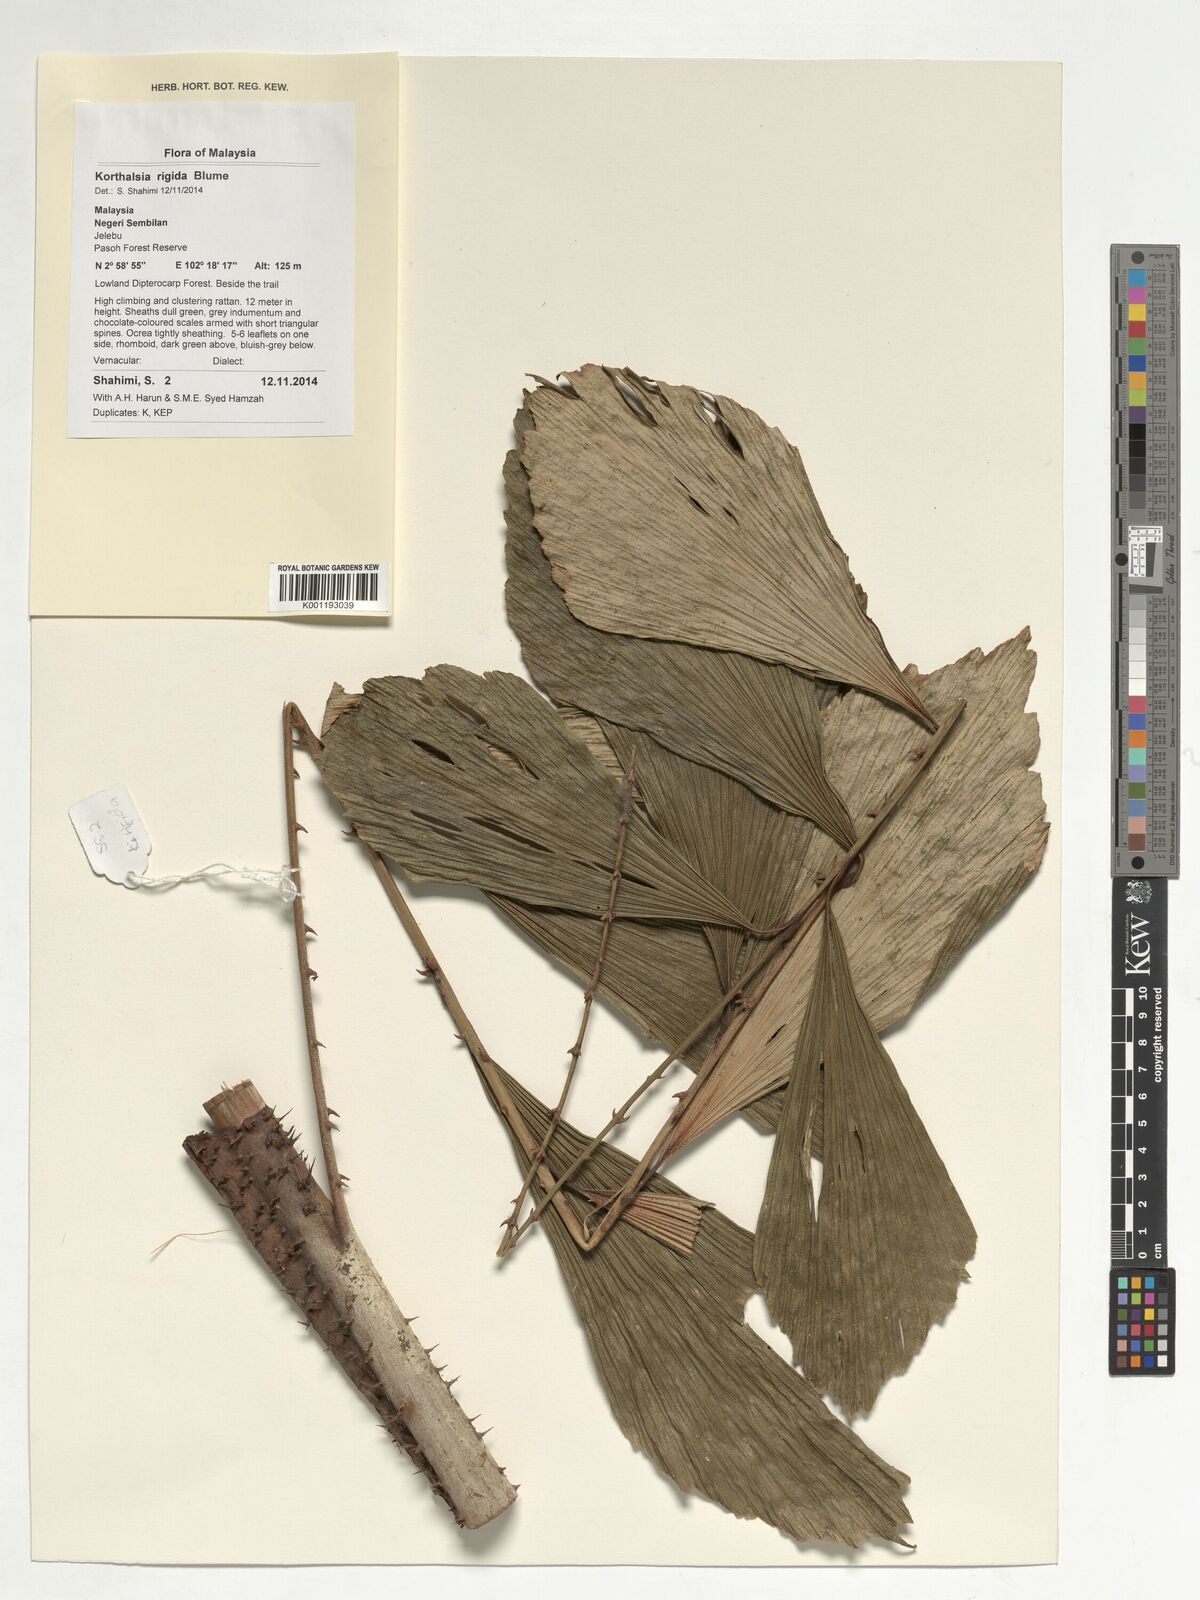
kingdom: Plantae
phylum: Tracheophyta
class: Liliopsida
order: Arecales
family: Arecaceae
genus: Korthalsia
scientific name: Korthalsia rigida
